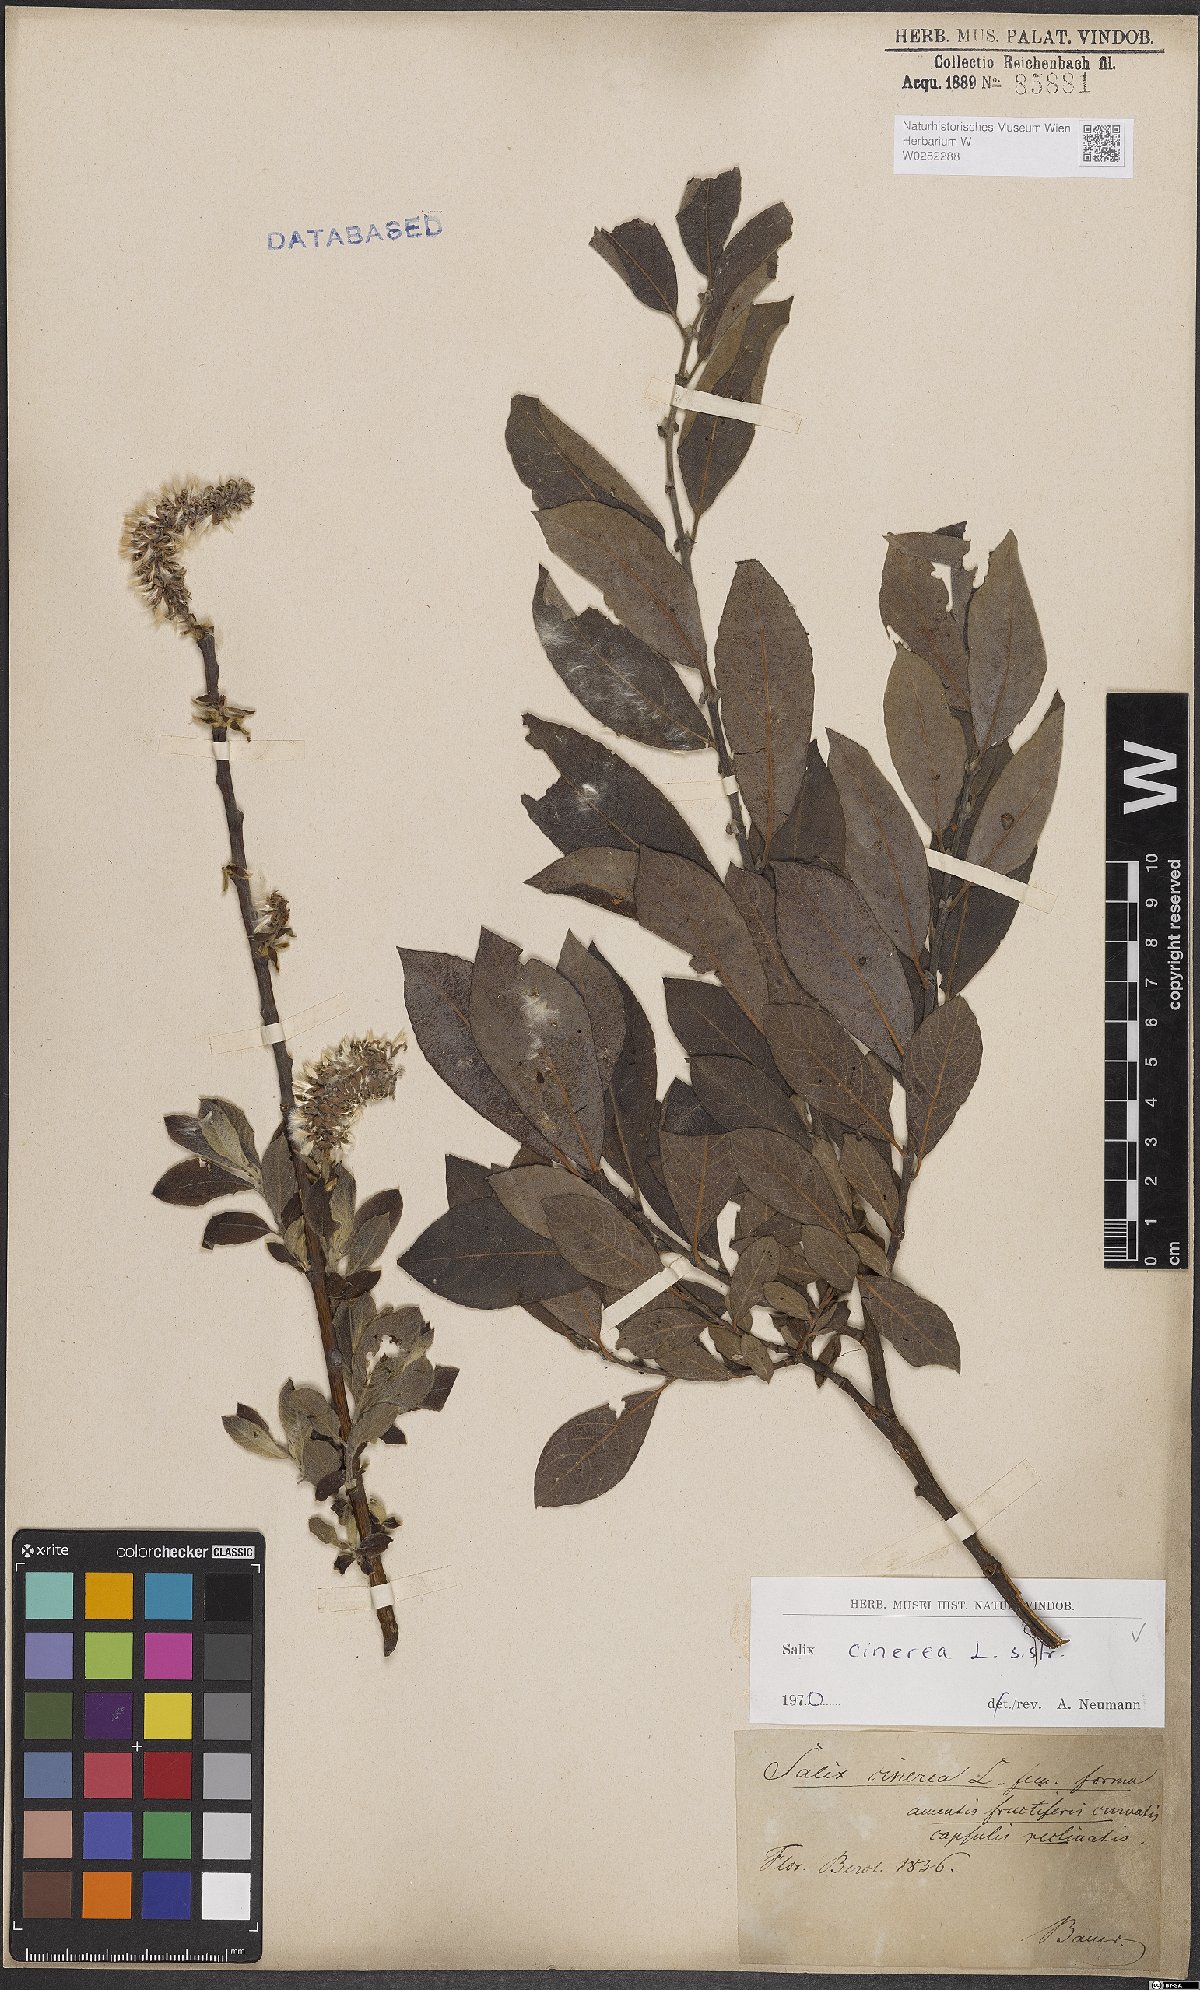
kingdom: Plantae
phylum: Tracheophyta
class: Magnoliopsida
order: Malpighiales
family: Salicaceae
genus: Salix
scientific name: Salix cinerea
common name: Common sallow
